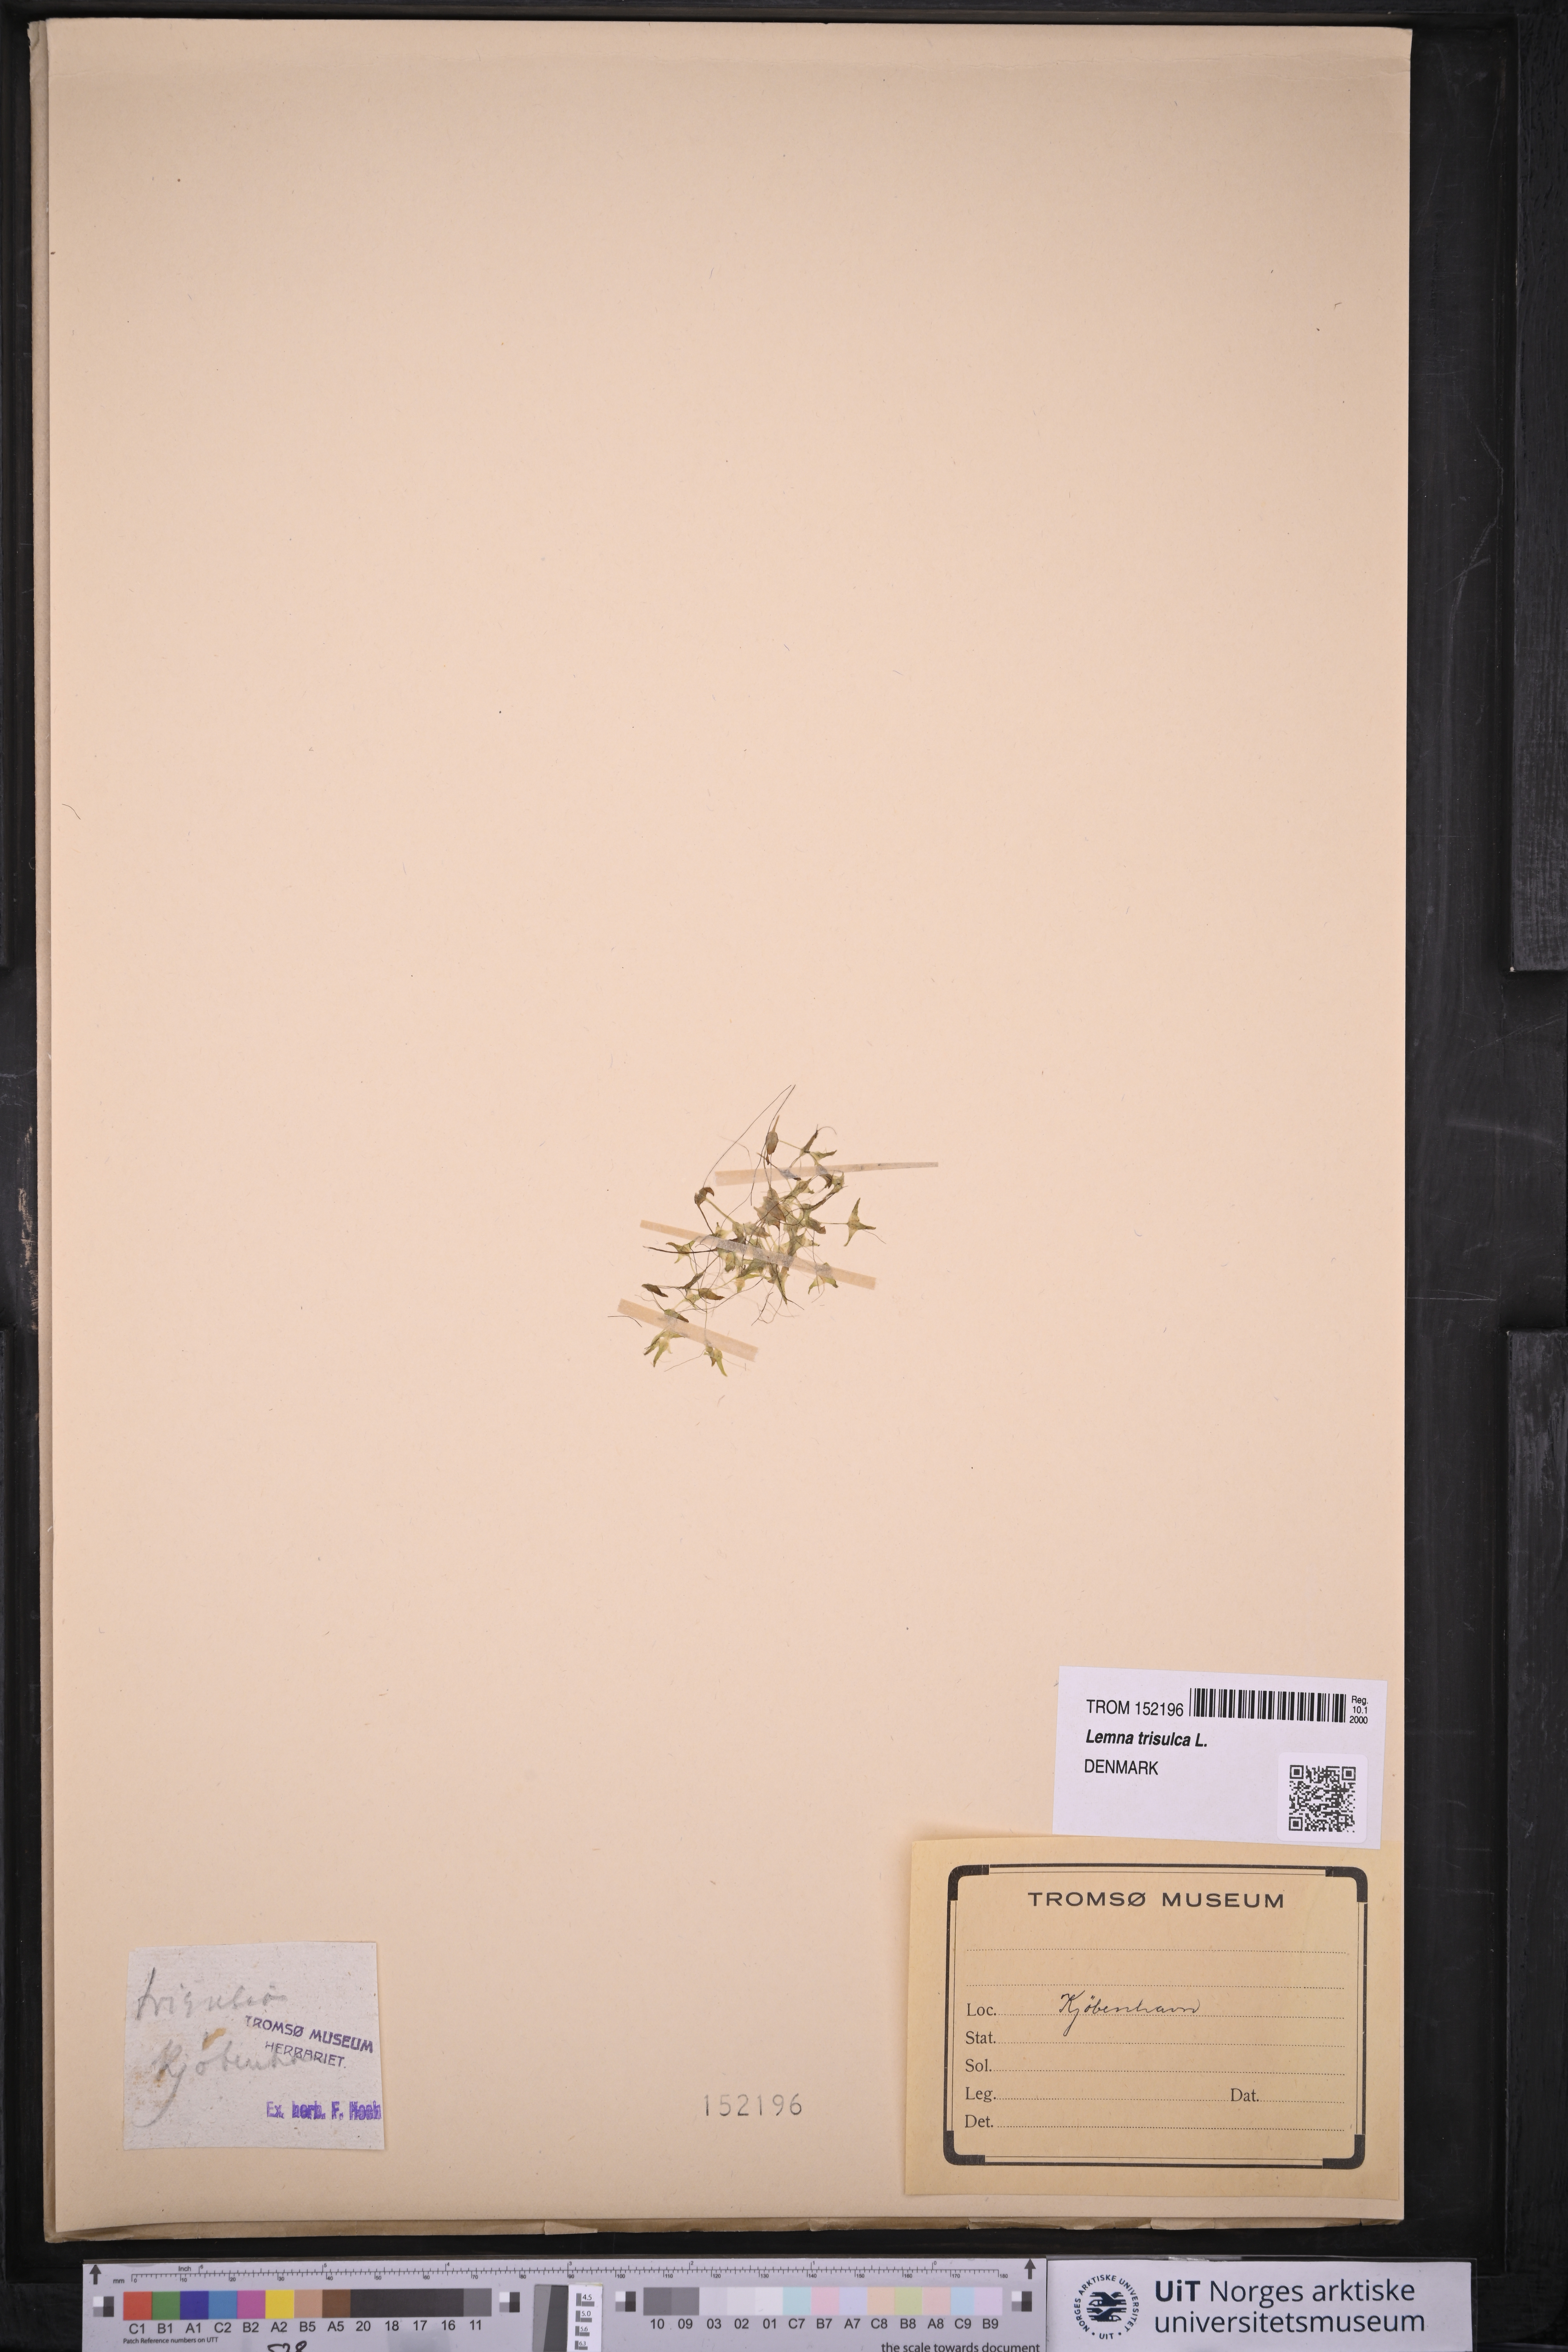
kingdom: Plantae
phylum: Tracheophyta
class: Liliopsida
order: Alismatales
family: Araceae
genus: Lemna
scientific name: Lemna trisulca
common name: Ivy-leaved duckweed
